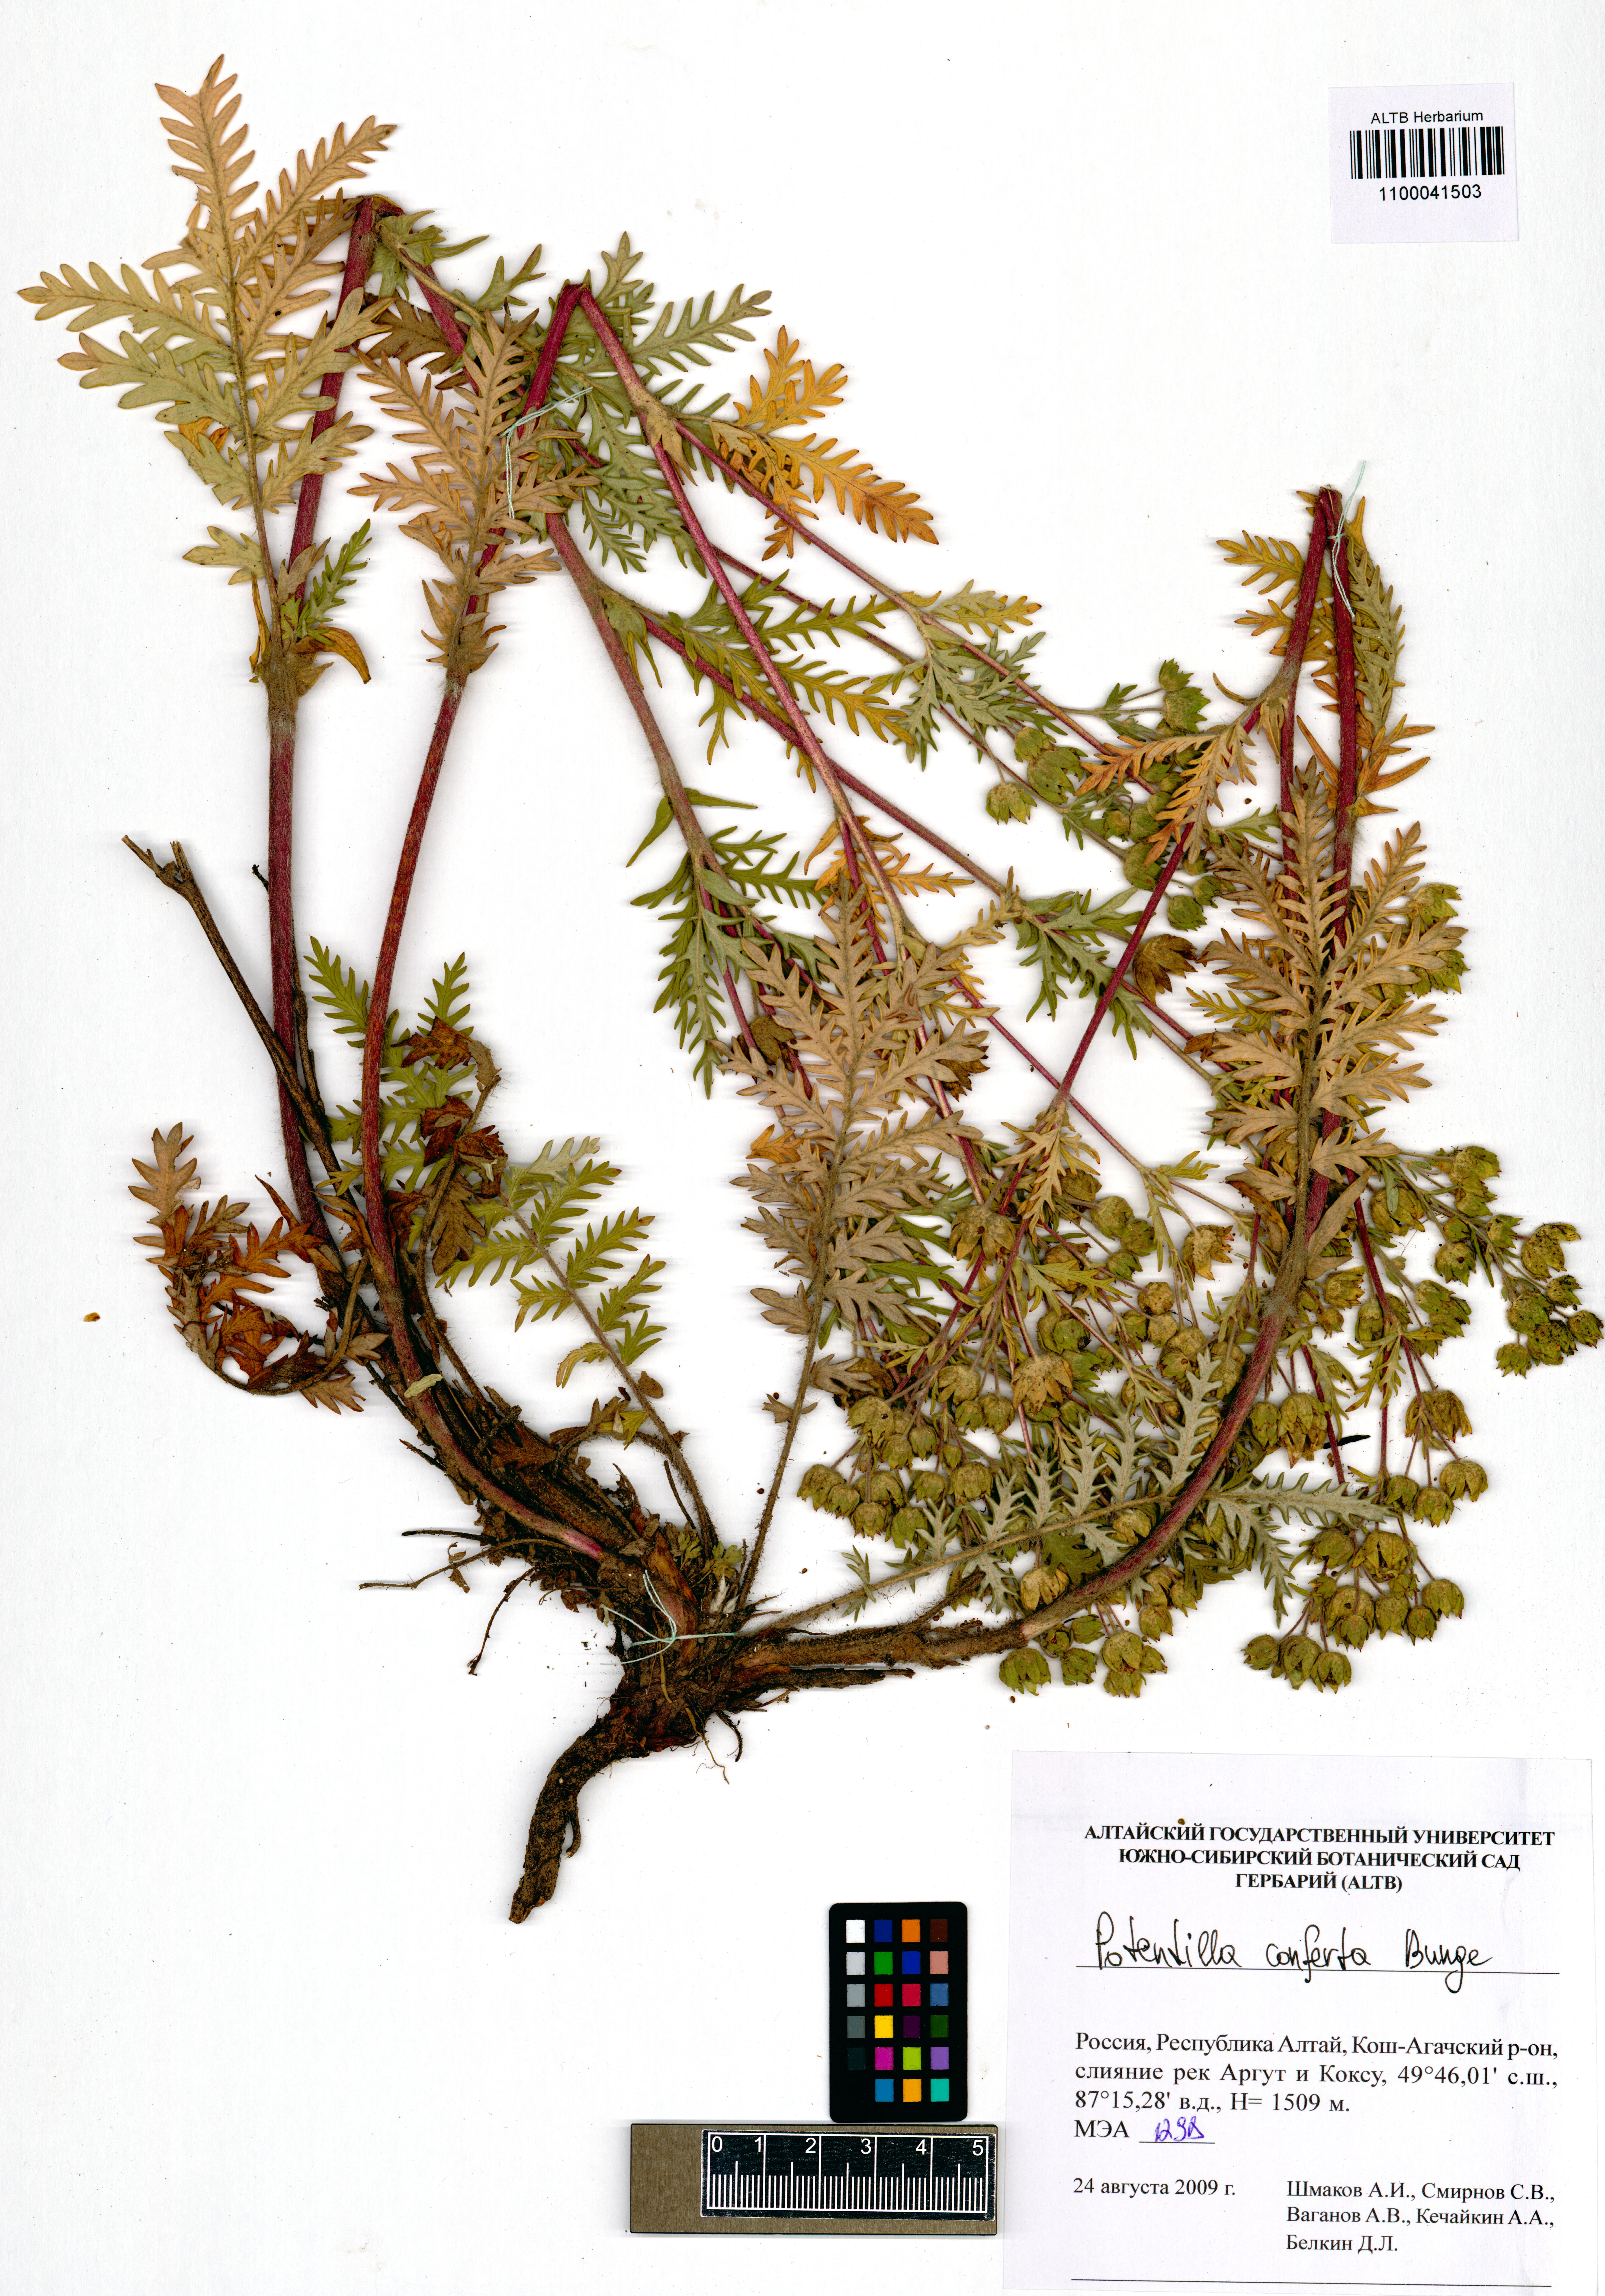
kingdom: Plantae
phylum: Tracheophyta
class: Magnoliopsida
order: Rosales
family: Rosaceae
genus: Potentilla
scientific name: Potentilla conferta
